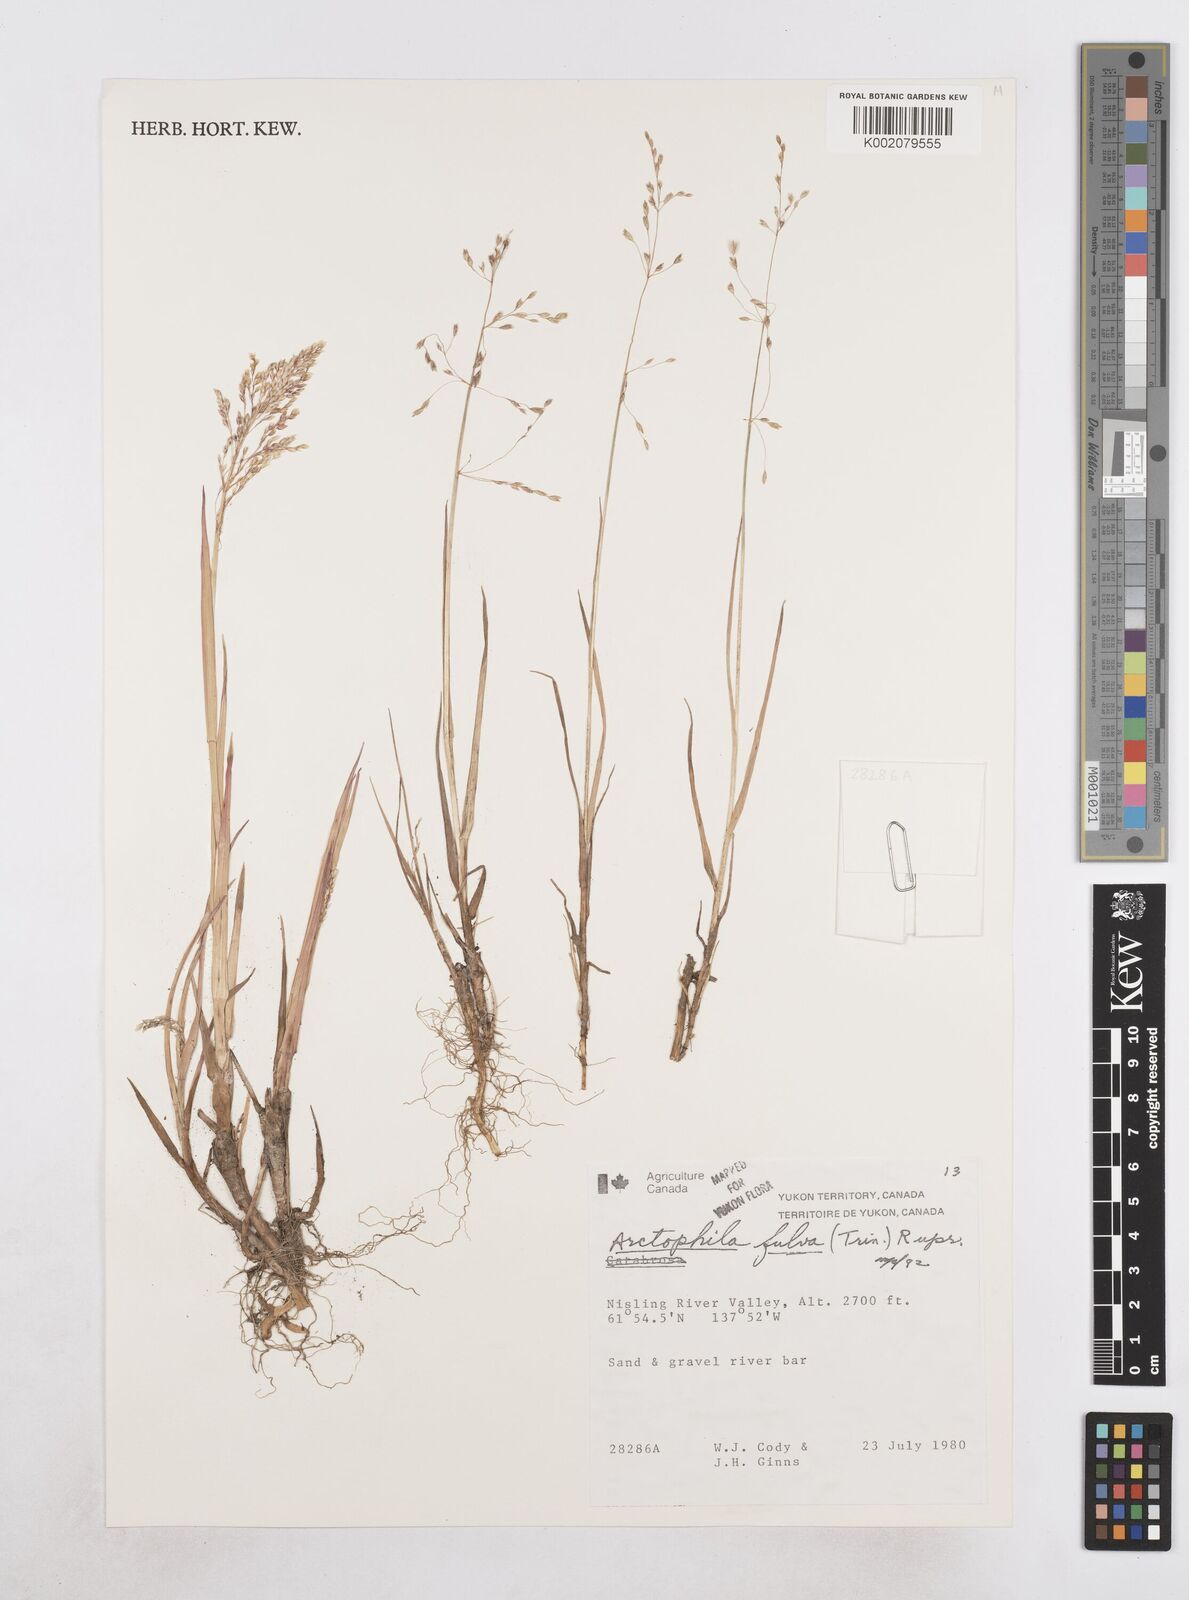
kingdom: Plantae
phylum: Tracheophyta
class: Liliopsida
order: Poales
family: Poaceae
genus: Dupontia
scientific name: Dupontia fulva
